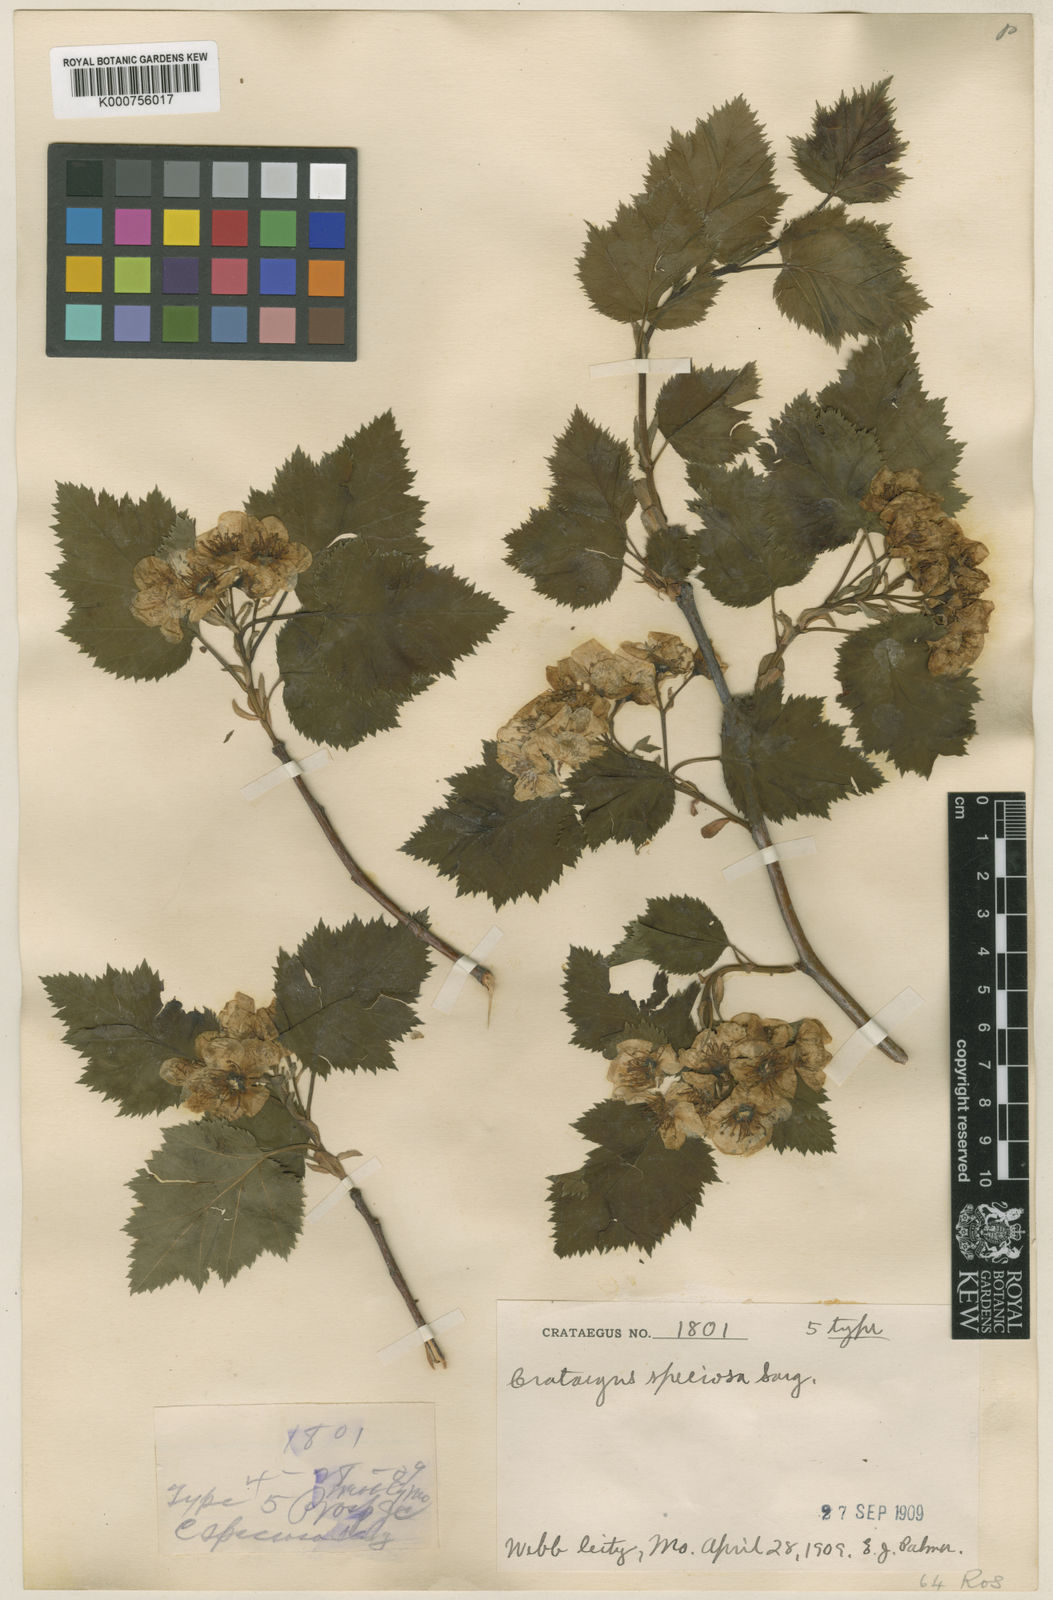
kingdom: Plantae
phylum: Tracheophyta
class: Magnoliopsida
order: Rosales
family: Rosaceae
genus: Crataegus
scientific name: Crataegus coccinioides
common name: Large-flowered cockspurthorn
